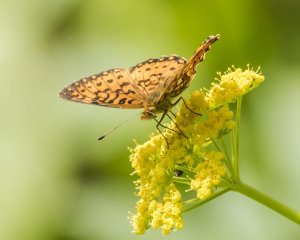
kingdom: Animalia
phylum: Arthropoda
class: Insecta
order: Lepidoptera
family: Nymphalidae
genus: Boloria
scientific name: Boloria selene
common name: Silver-bordered Fritillary
